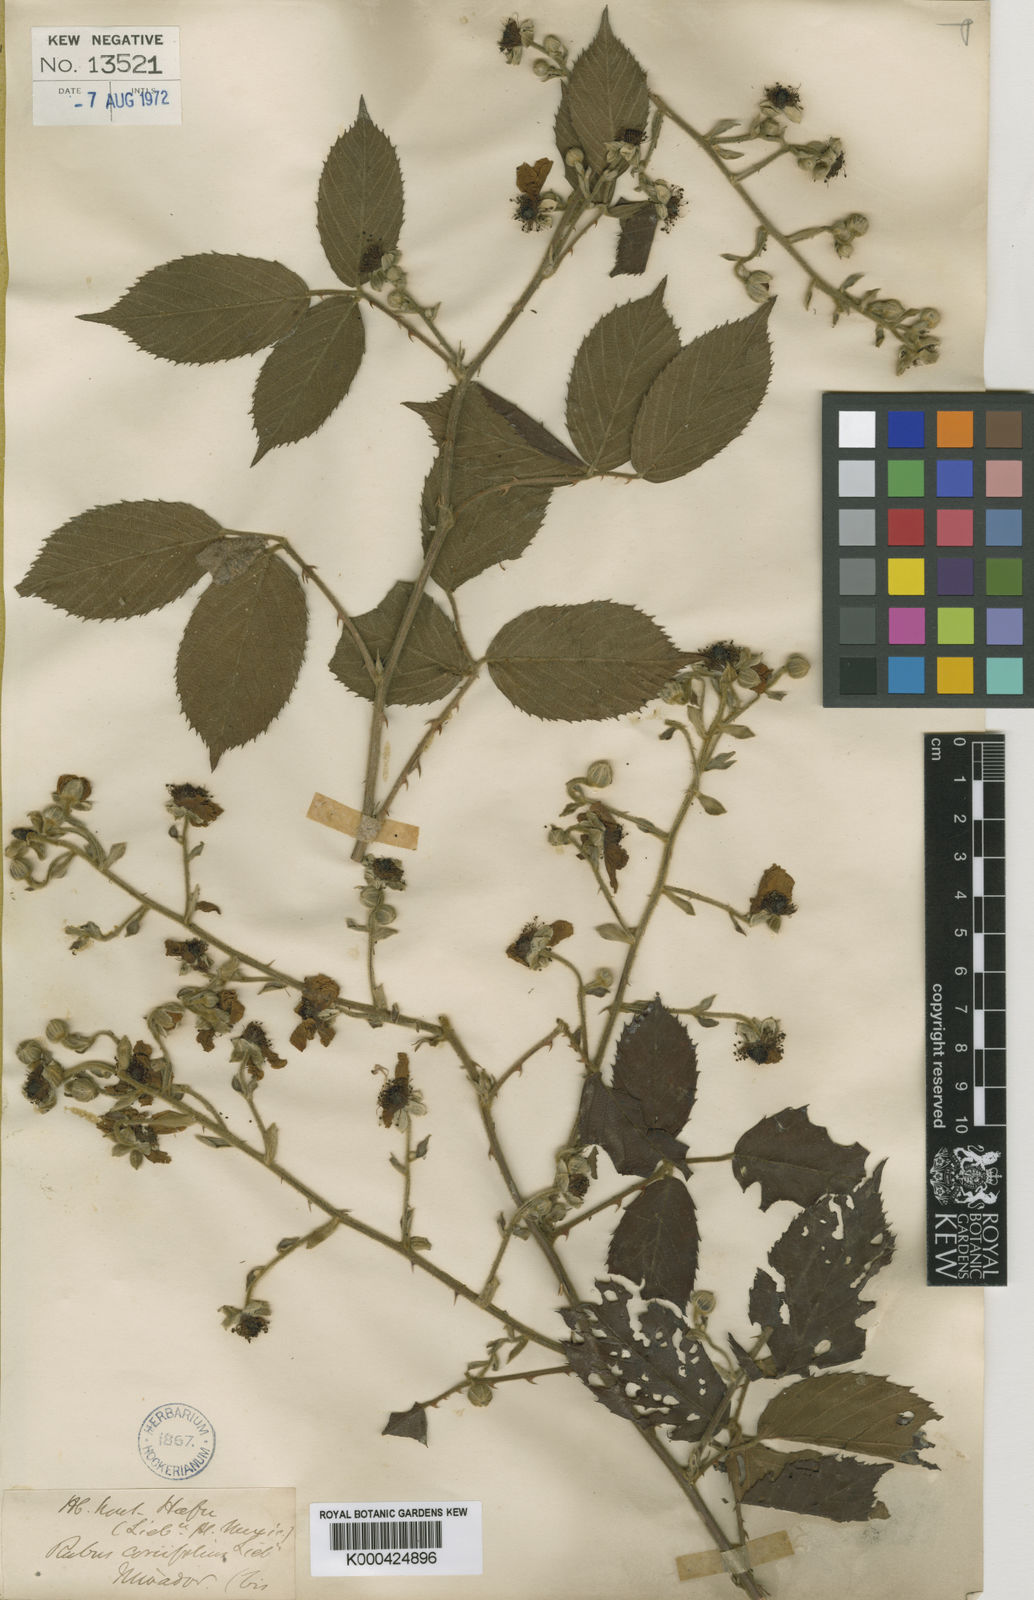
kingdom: Plantae
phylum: Tracheophyta
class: Magnoliopsida
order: Rosales
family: Rosaceae
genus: Rubus
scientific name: Rubus coriifolius
